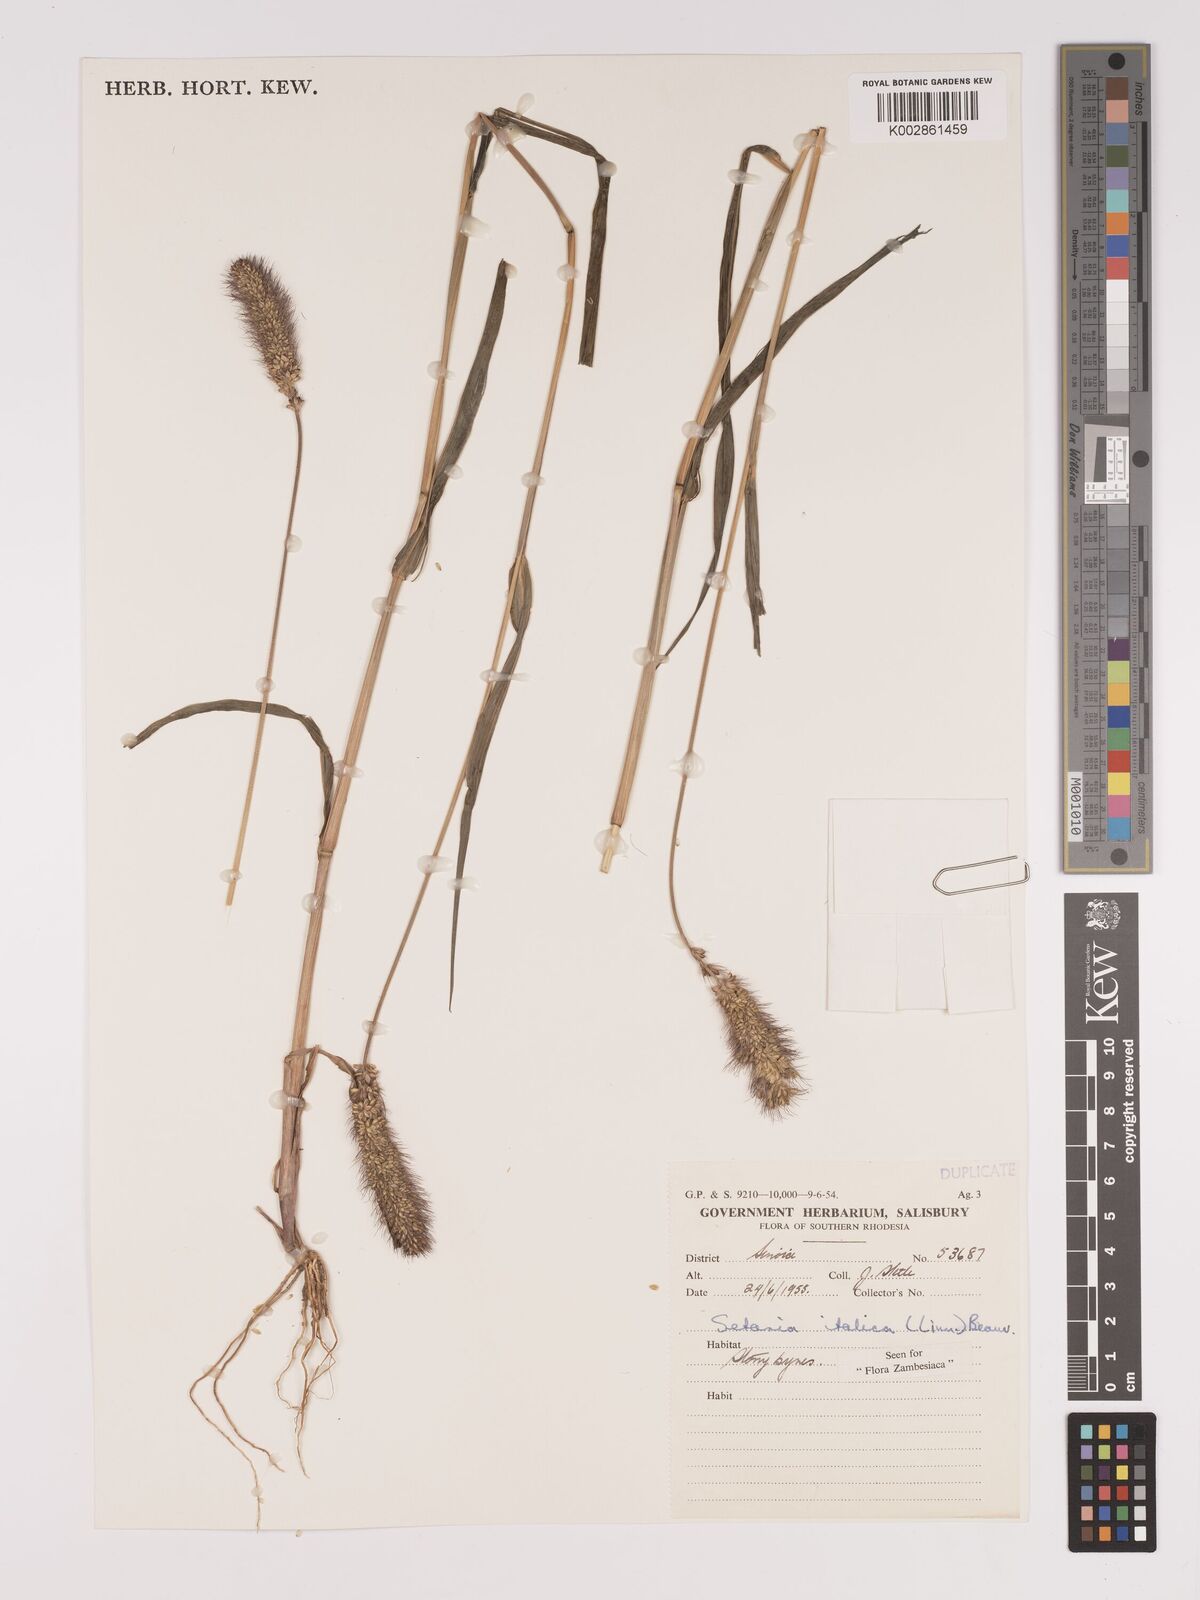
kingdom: Plantae
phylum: Tracheophyta
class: Liliopsida
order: Poales
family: Poaceae
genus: Setaria
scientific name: Setaria italica
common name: Foxtail bristle-grass
